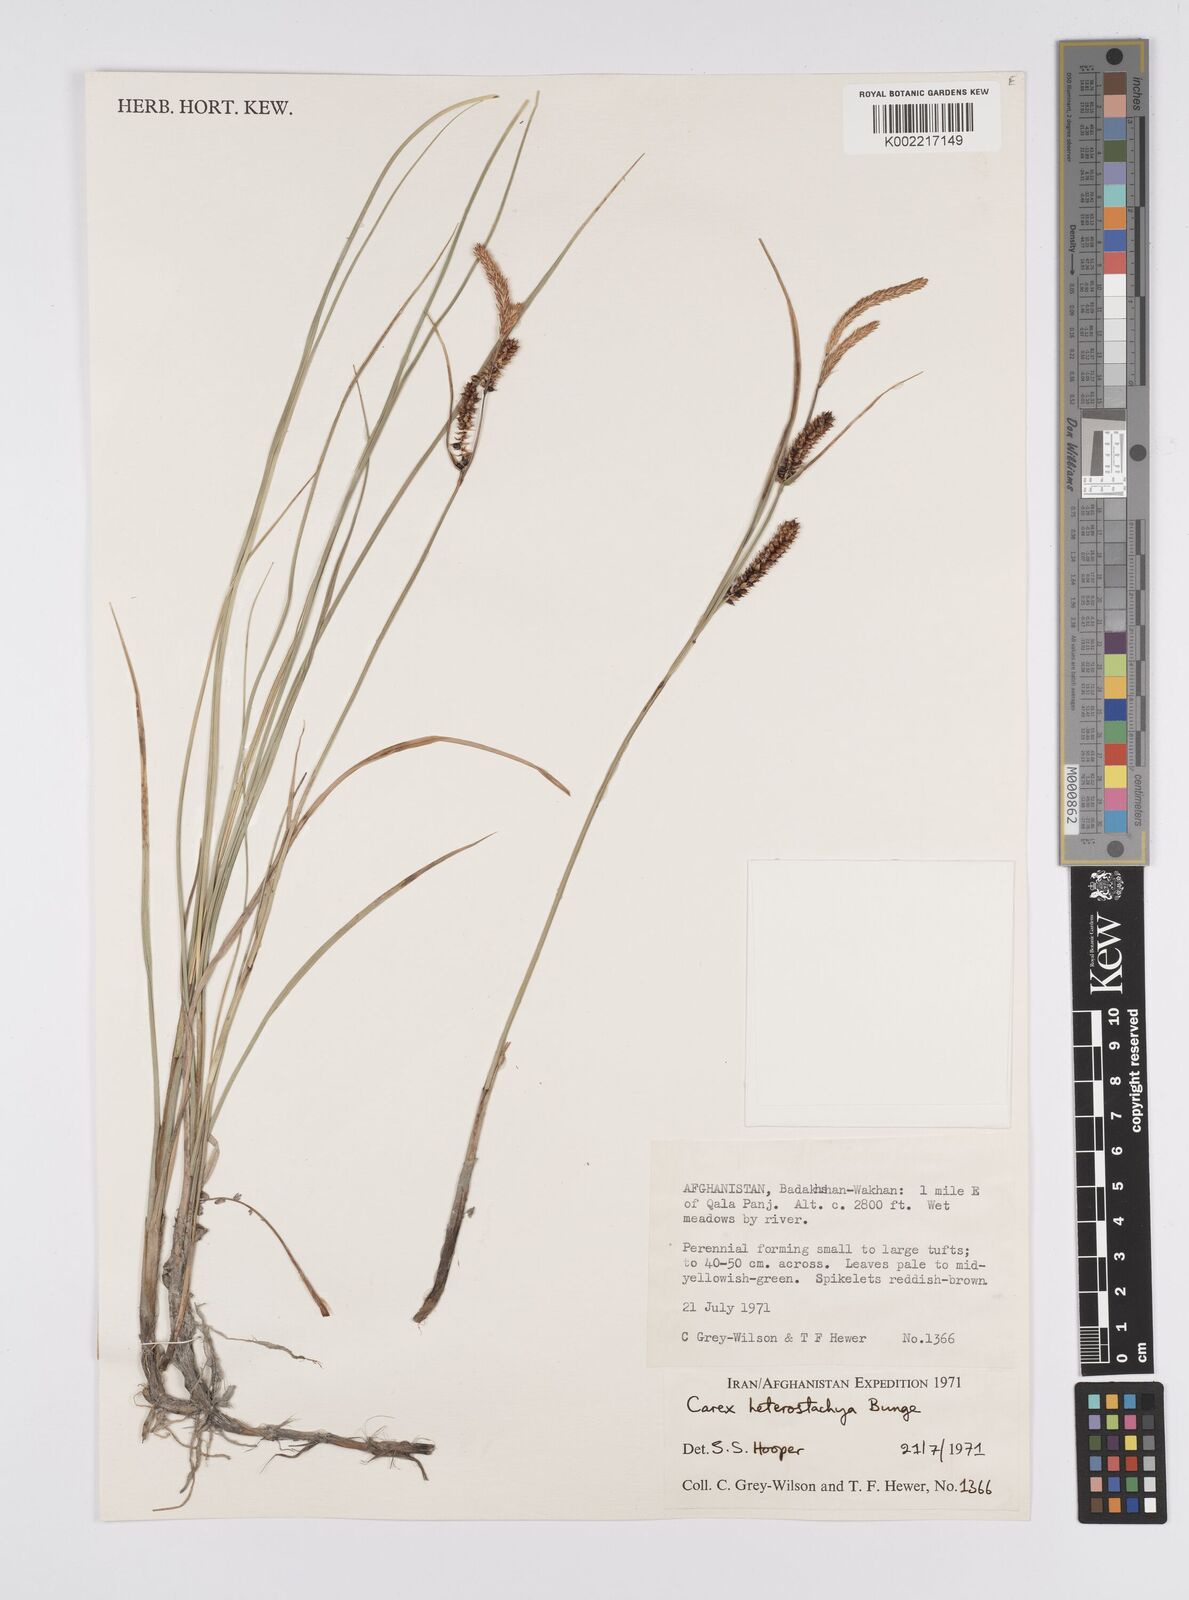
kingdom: Plantae
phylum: Tracheophyta
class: Liliopsida
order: Poales
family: Cyperaceae
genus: Carex
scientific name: Carex heterostachya
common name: Different-spike sedge
